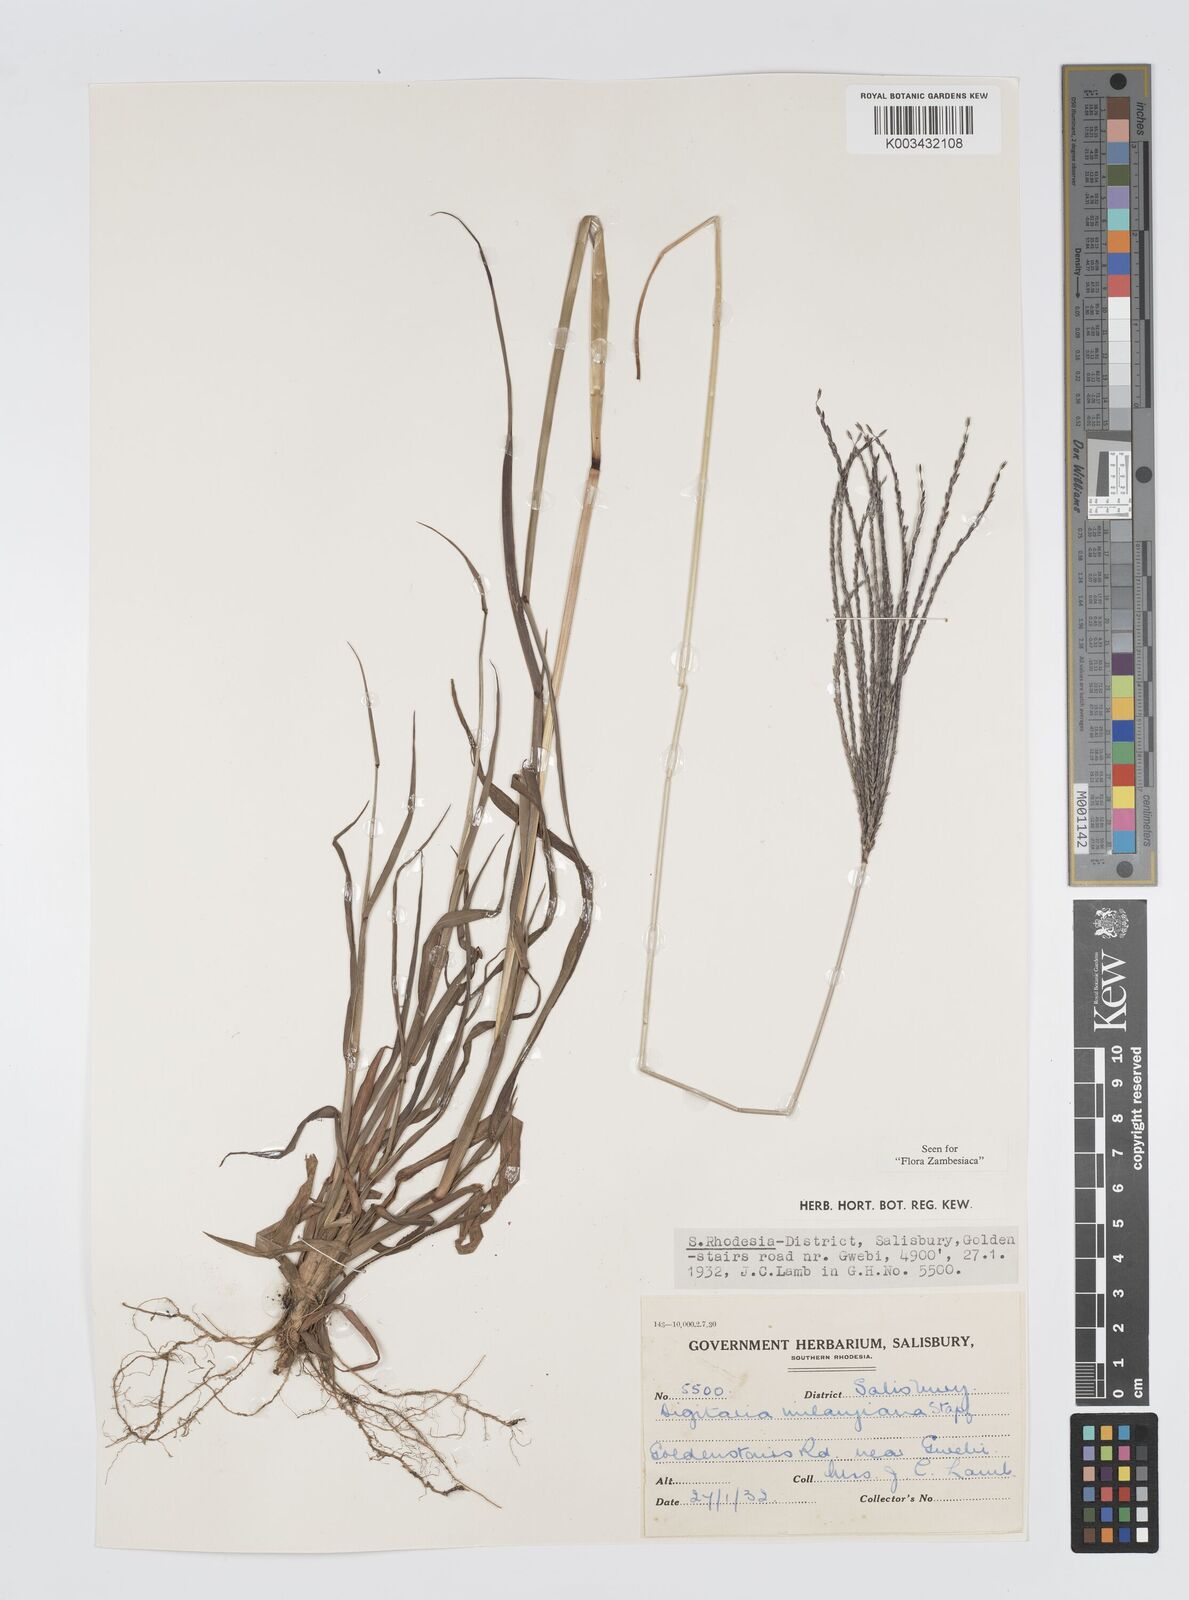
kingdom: Plantae
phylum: Tracheophyta
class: Liliopsida
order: Poales
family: Poaceae
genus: Digitaria
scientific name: Digitaria milanjiana
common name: Madagascar crabgrass
